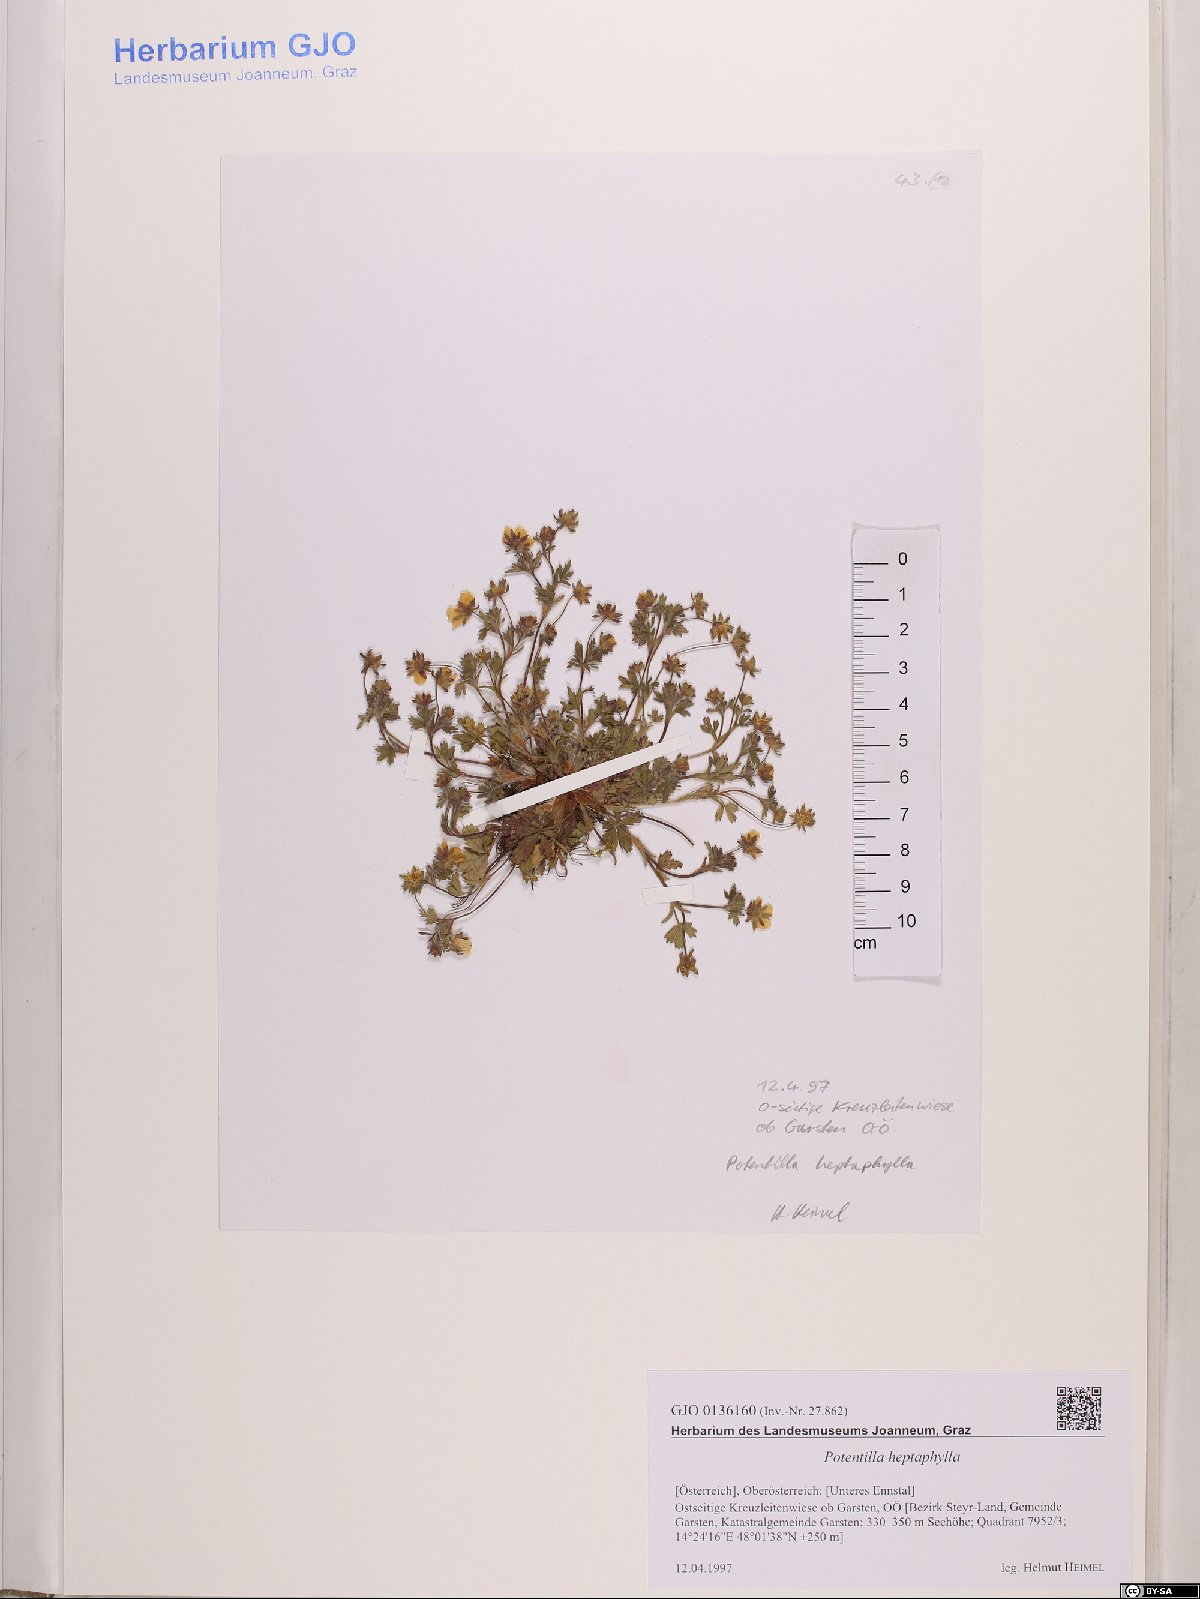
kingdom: Plantae
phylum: Tracheophyta
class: Magnoliopsida
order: Rosales
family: Rosaceae
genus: Potentilla
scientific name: Potentilla heptaphylla
